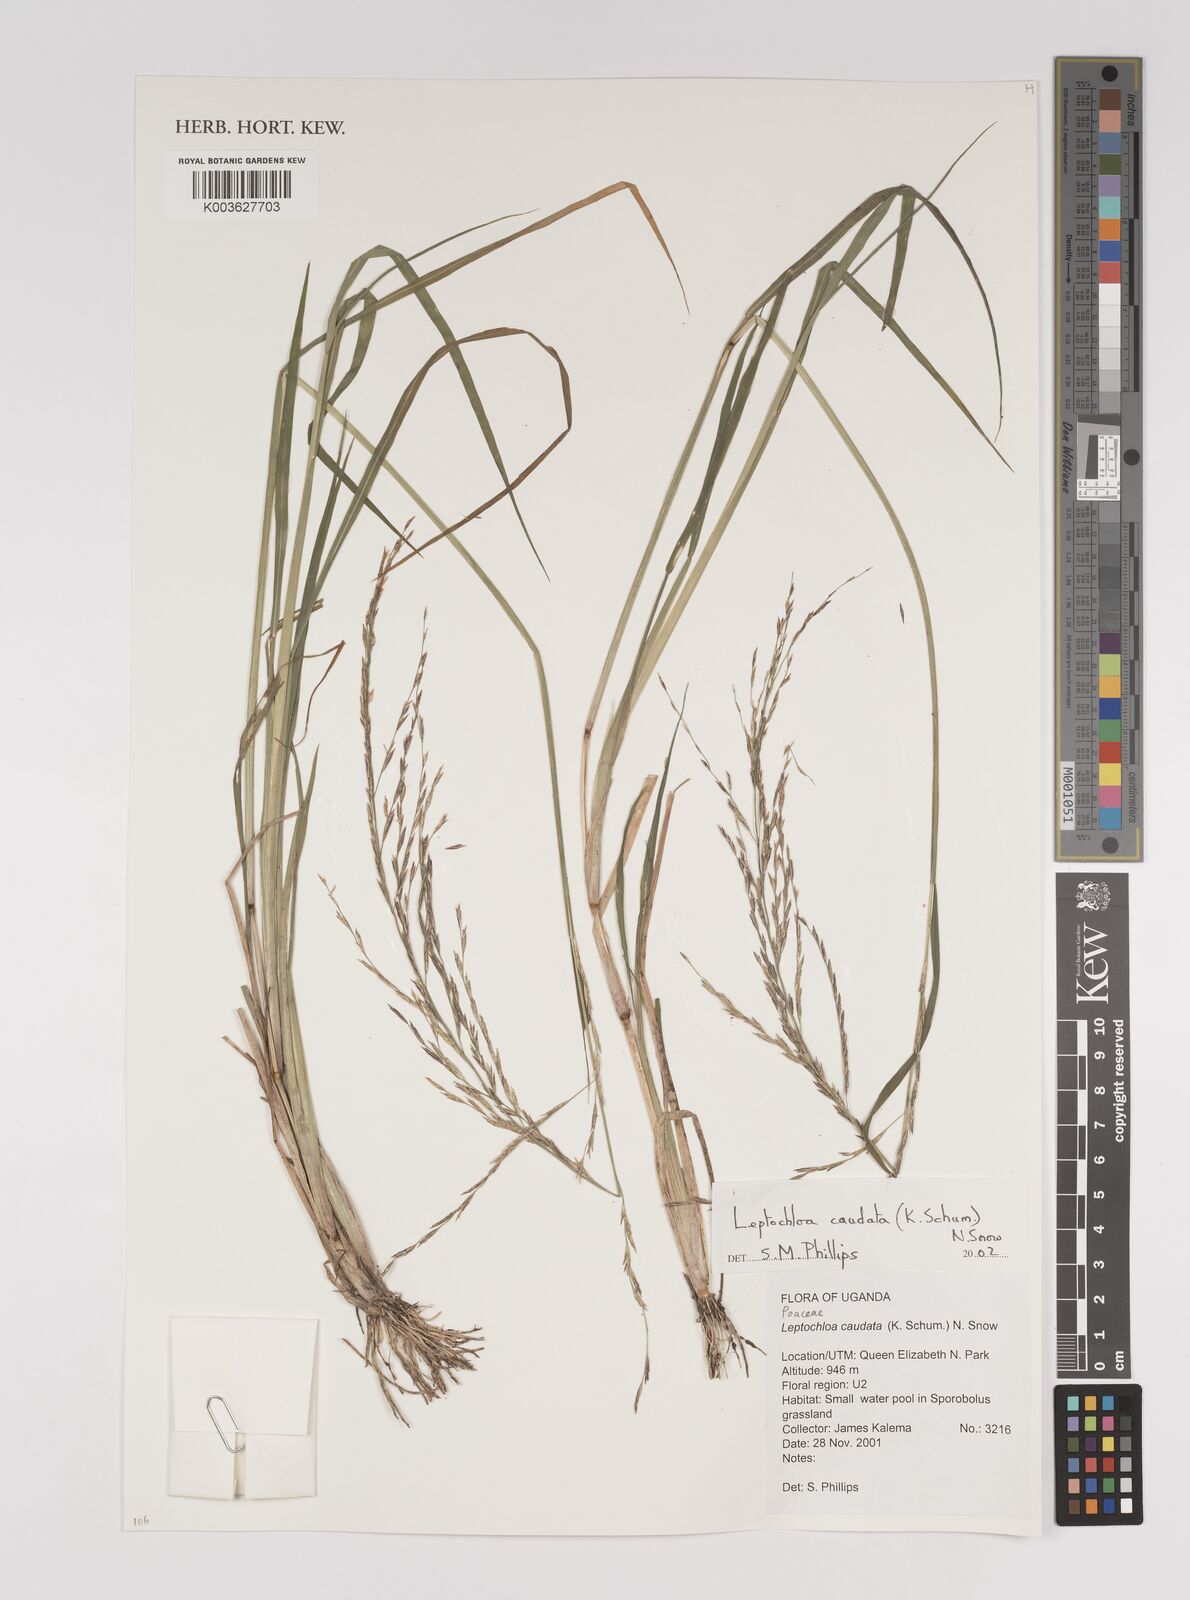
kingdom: Plantae
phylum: Tracheophyta
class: Liliopsida
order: Poales
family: Poaceae
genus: Leptochloa
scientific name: Leptochloa caudata
